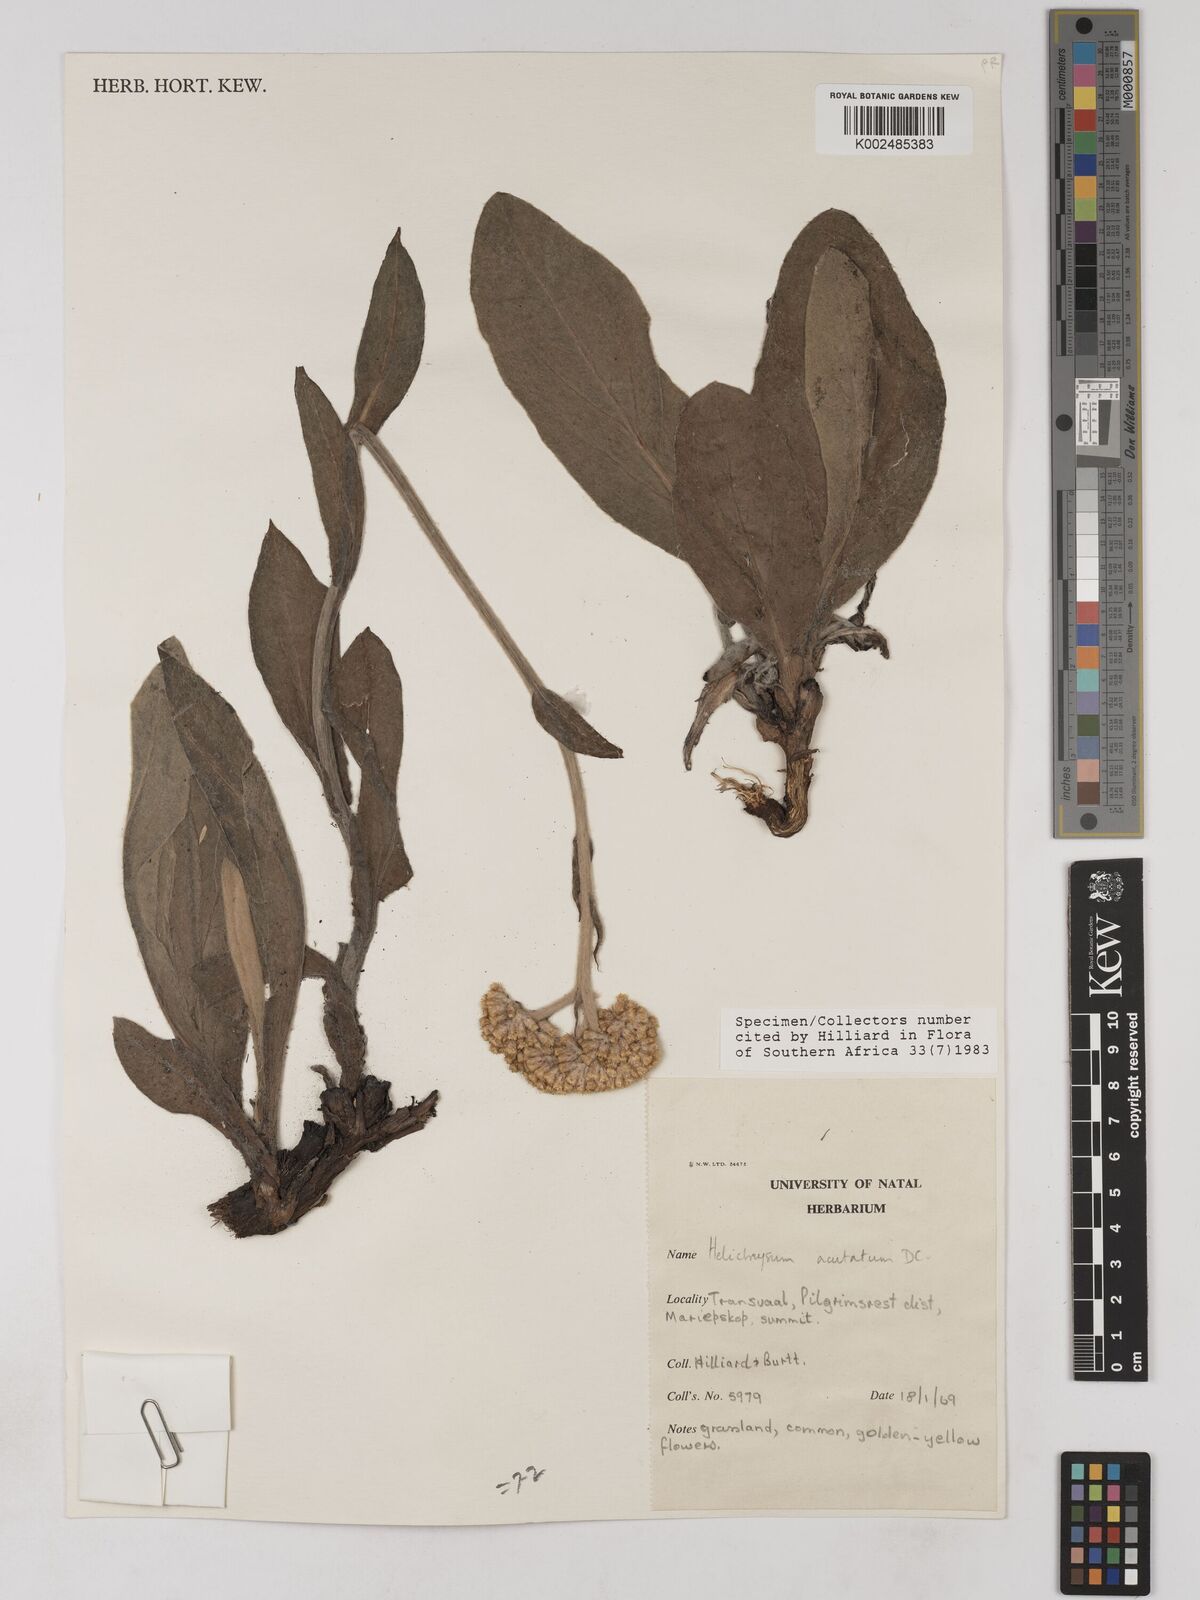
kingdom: Plantae
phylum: Tracheophyta
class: Magnoliopsida
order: Asterales
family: Asteraceae
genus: Helichrysum
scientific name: Helichrysum acutatum
